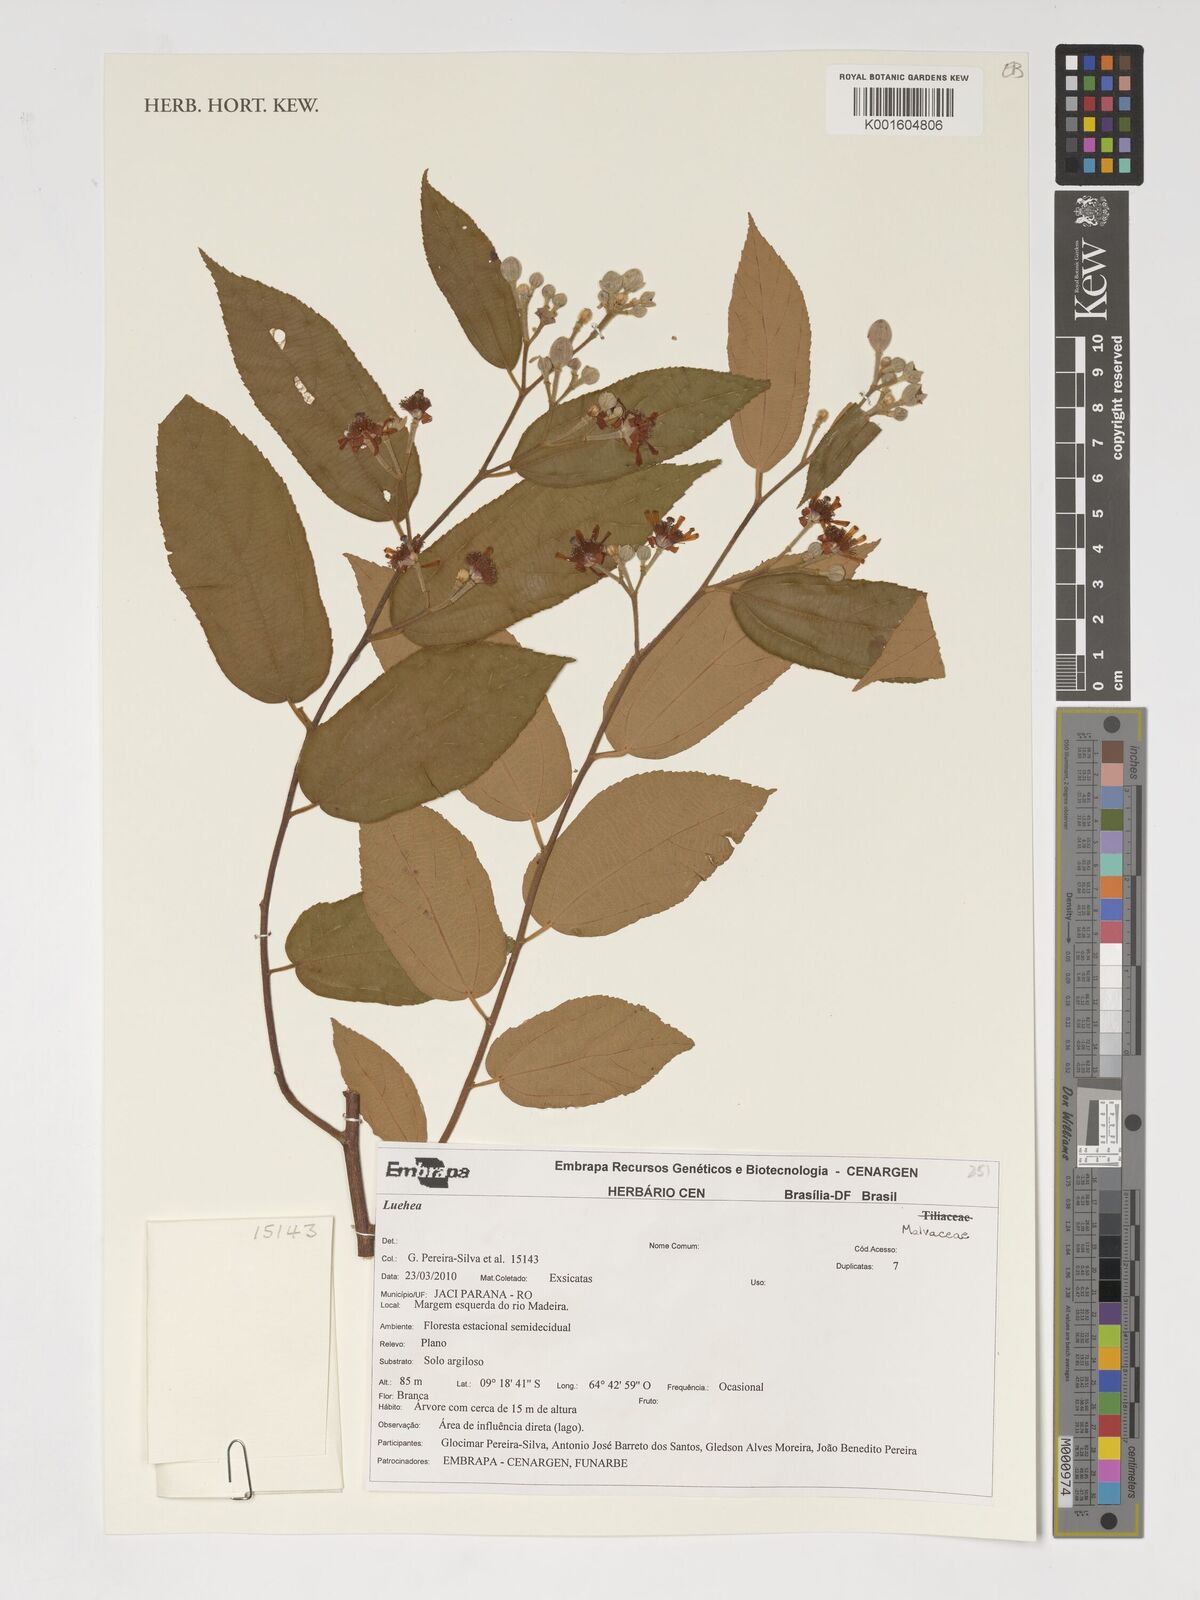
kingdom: Plantae
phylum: Tracheophyta
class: Magnoliopsida
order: Malvales
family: Malvaceae
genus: Luehea
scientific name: Luehea
